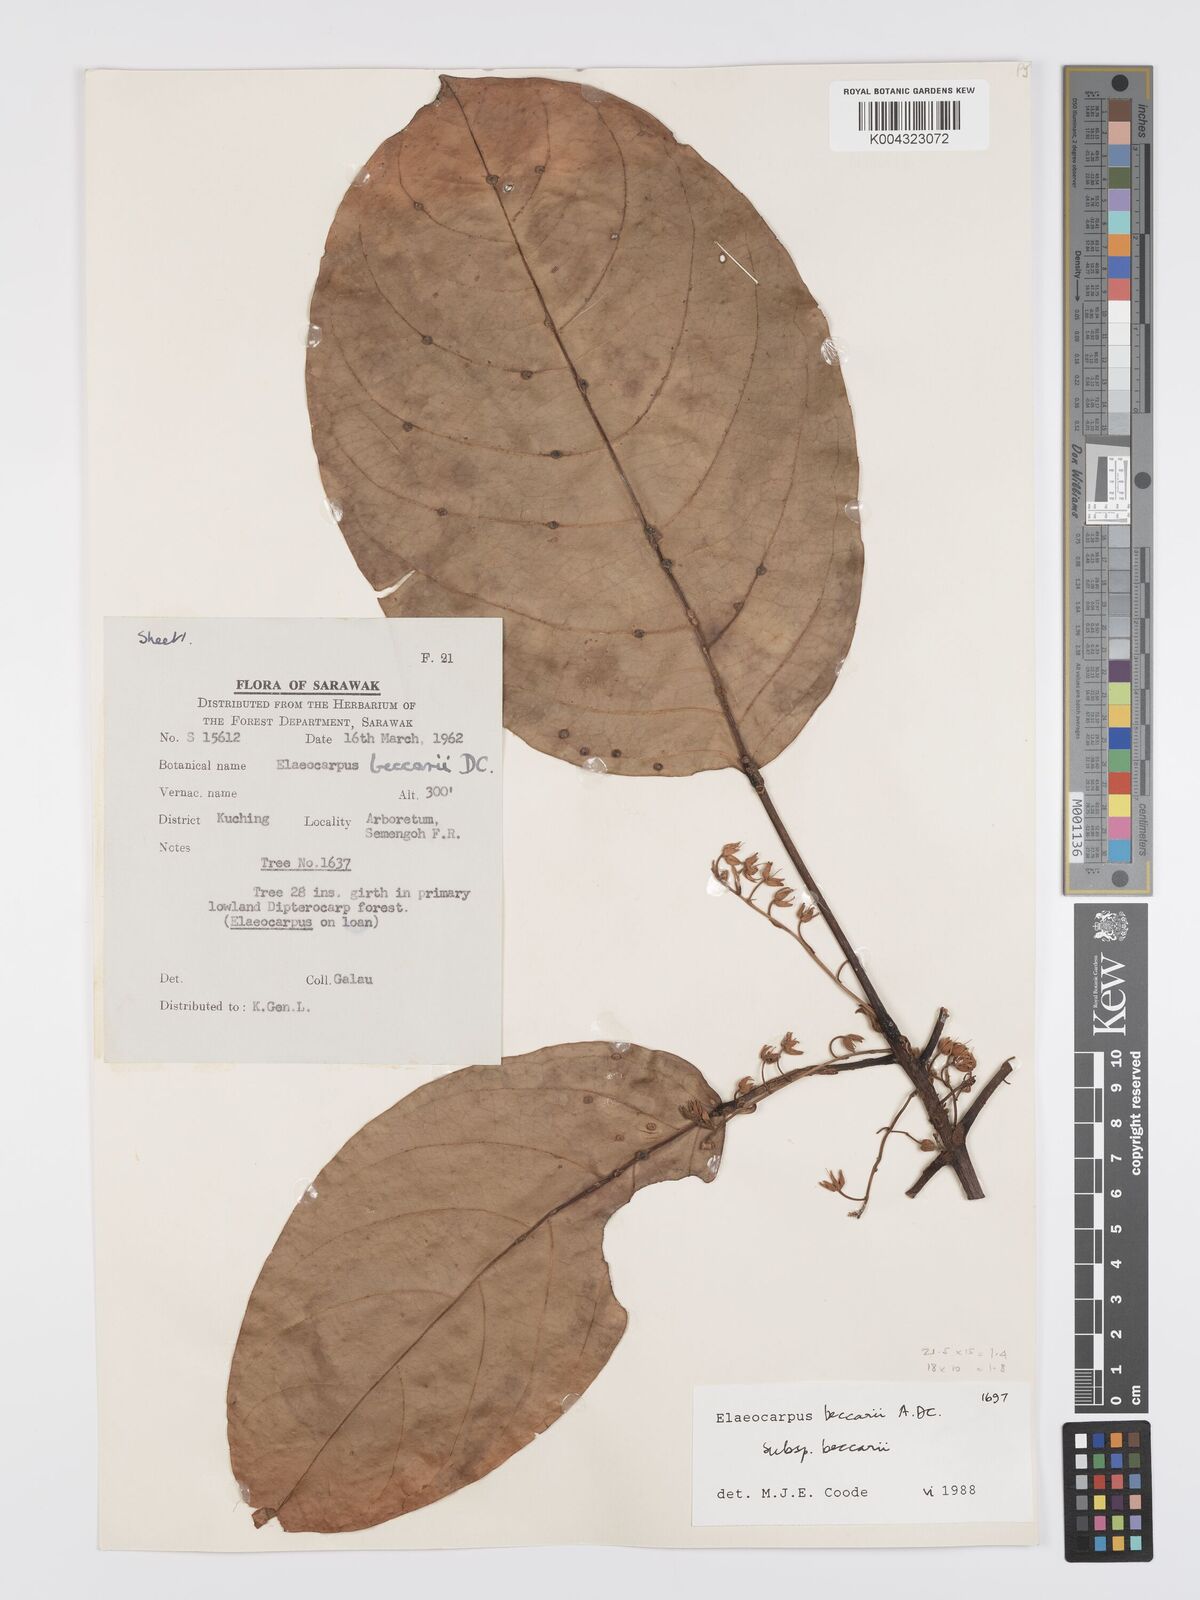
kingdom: Plantae
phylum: Tracheophyta
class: Magnoliopsida
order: Oxalidales
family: Elaeocarpaceae
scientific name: Elaeocarpaceae
